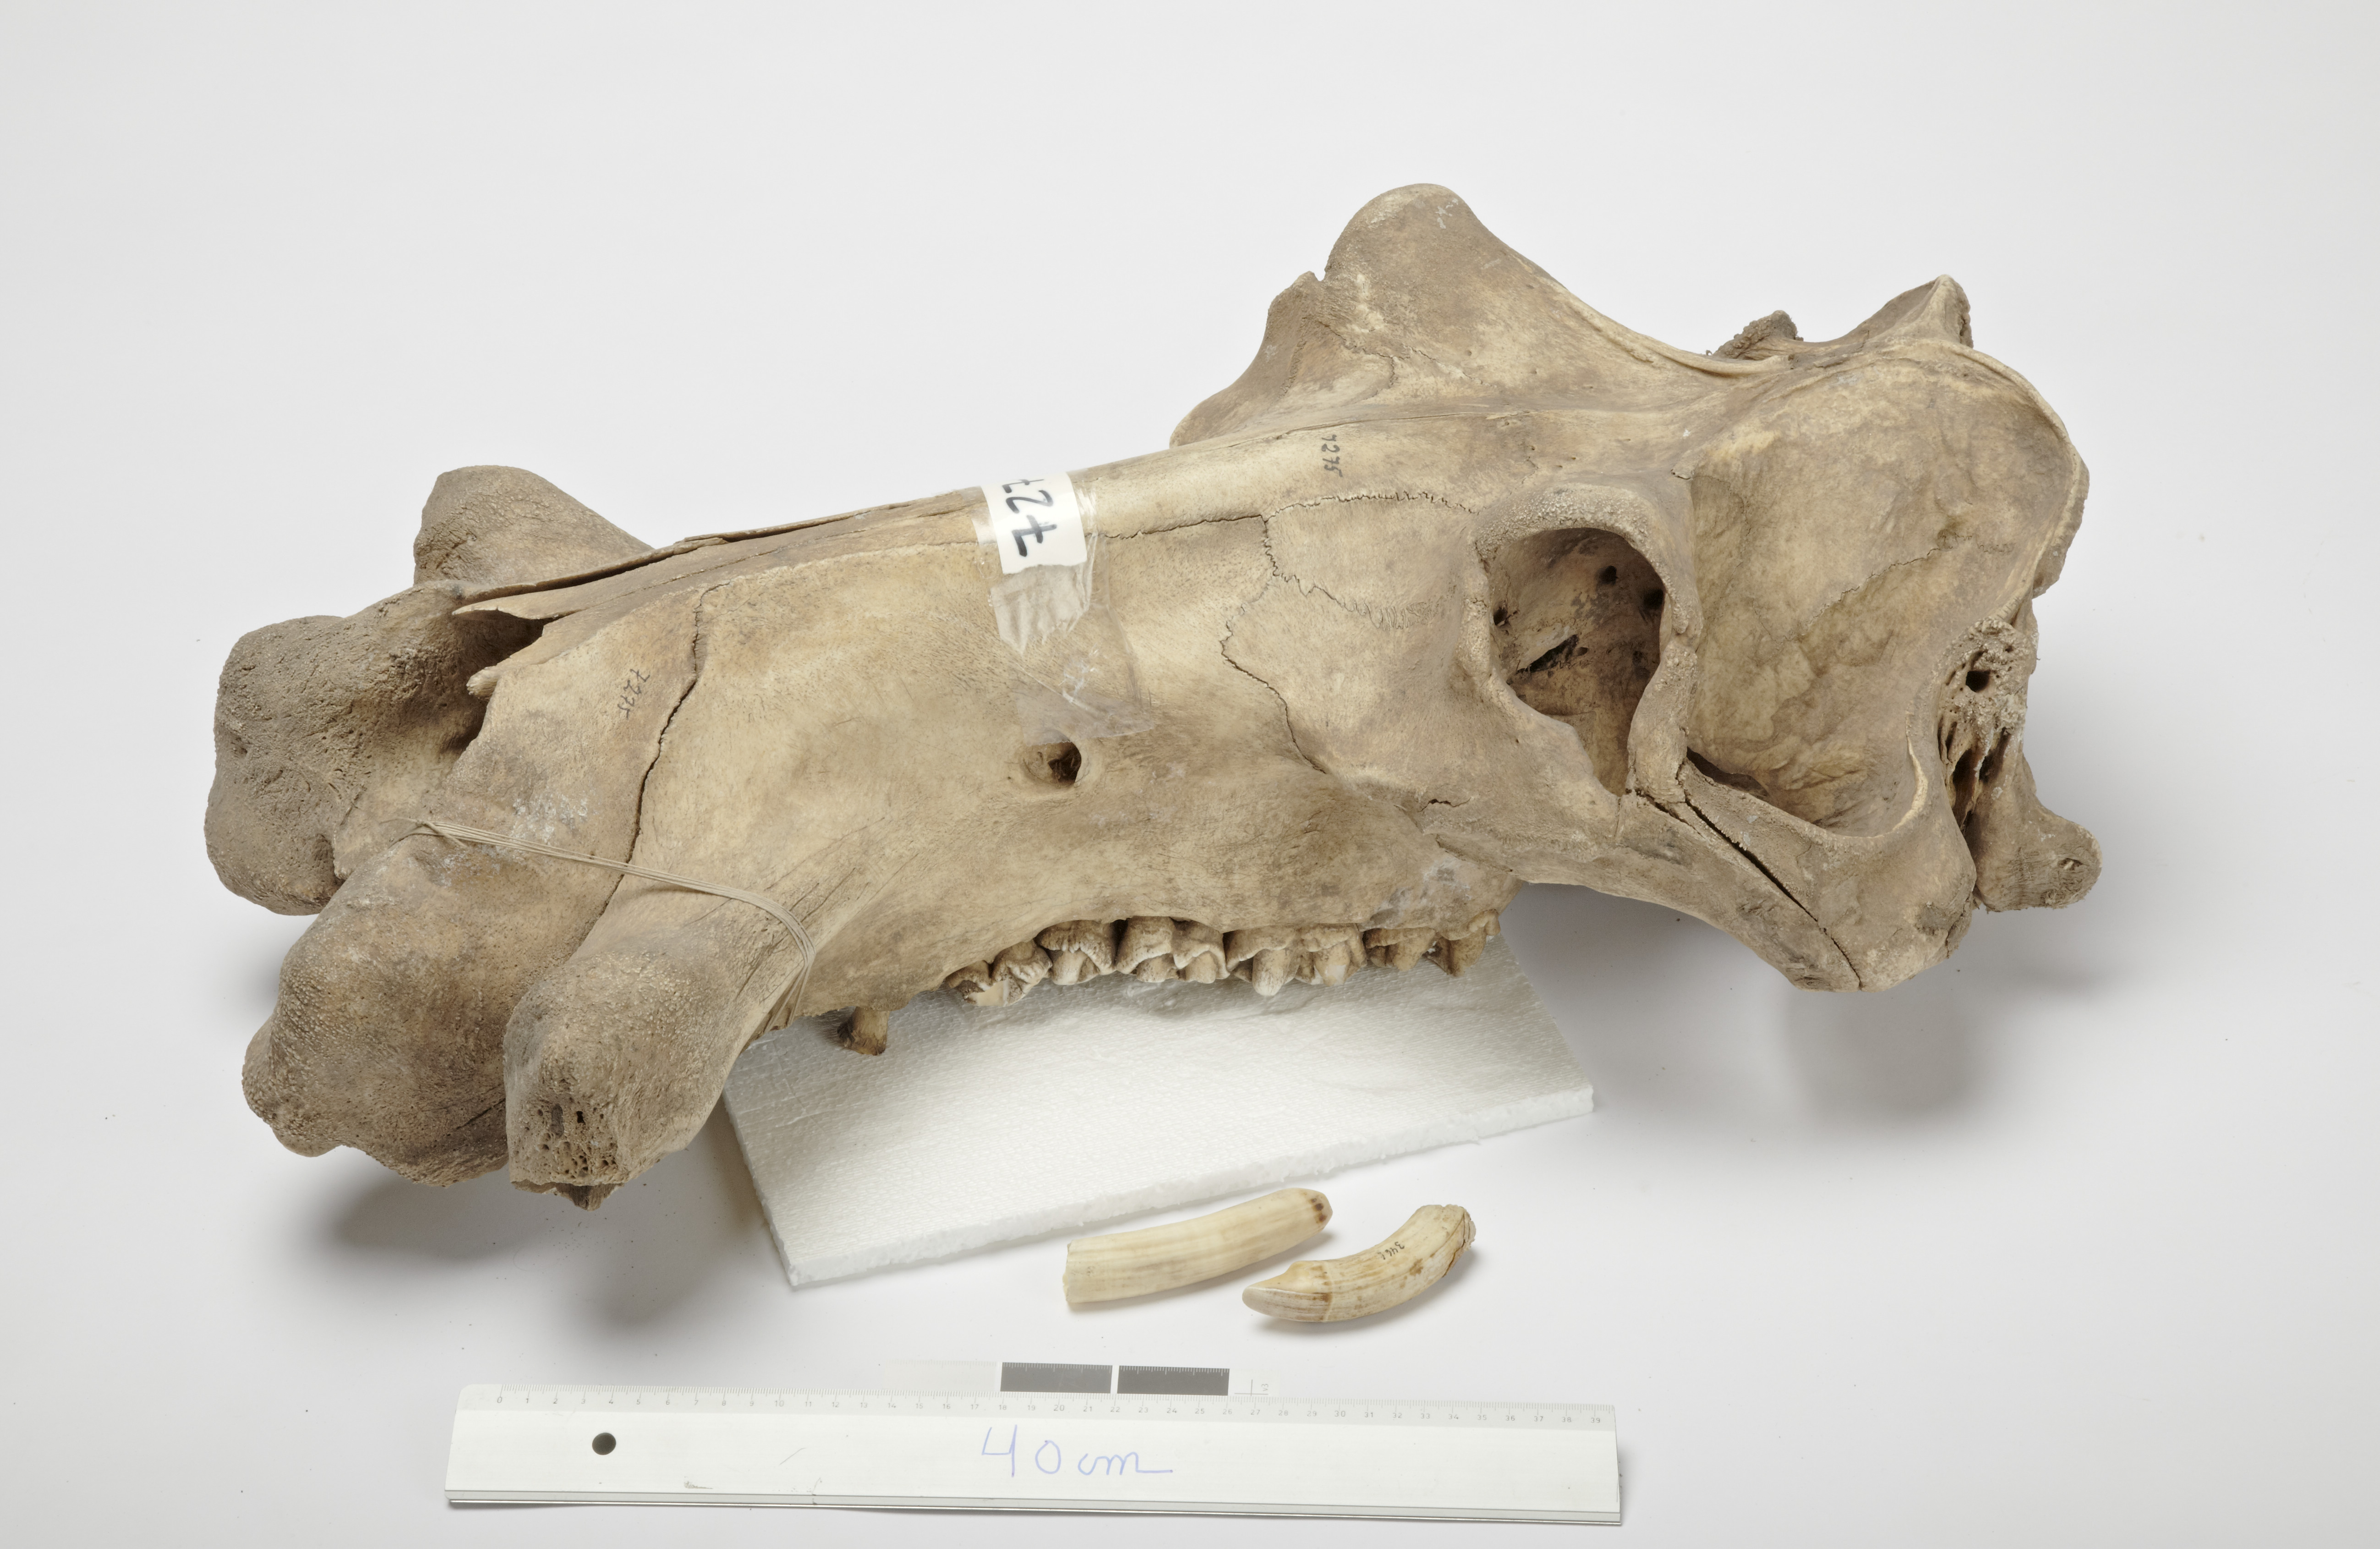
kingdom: Animalia
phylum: Chordata
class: Mammalia
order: Artiodactyla
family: Hippopotamidae
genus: Hippopotamus
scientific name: Hippopotamus
